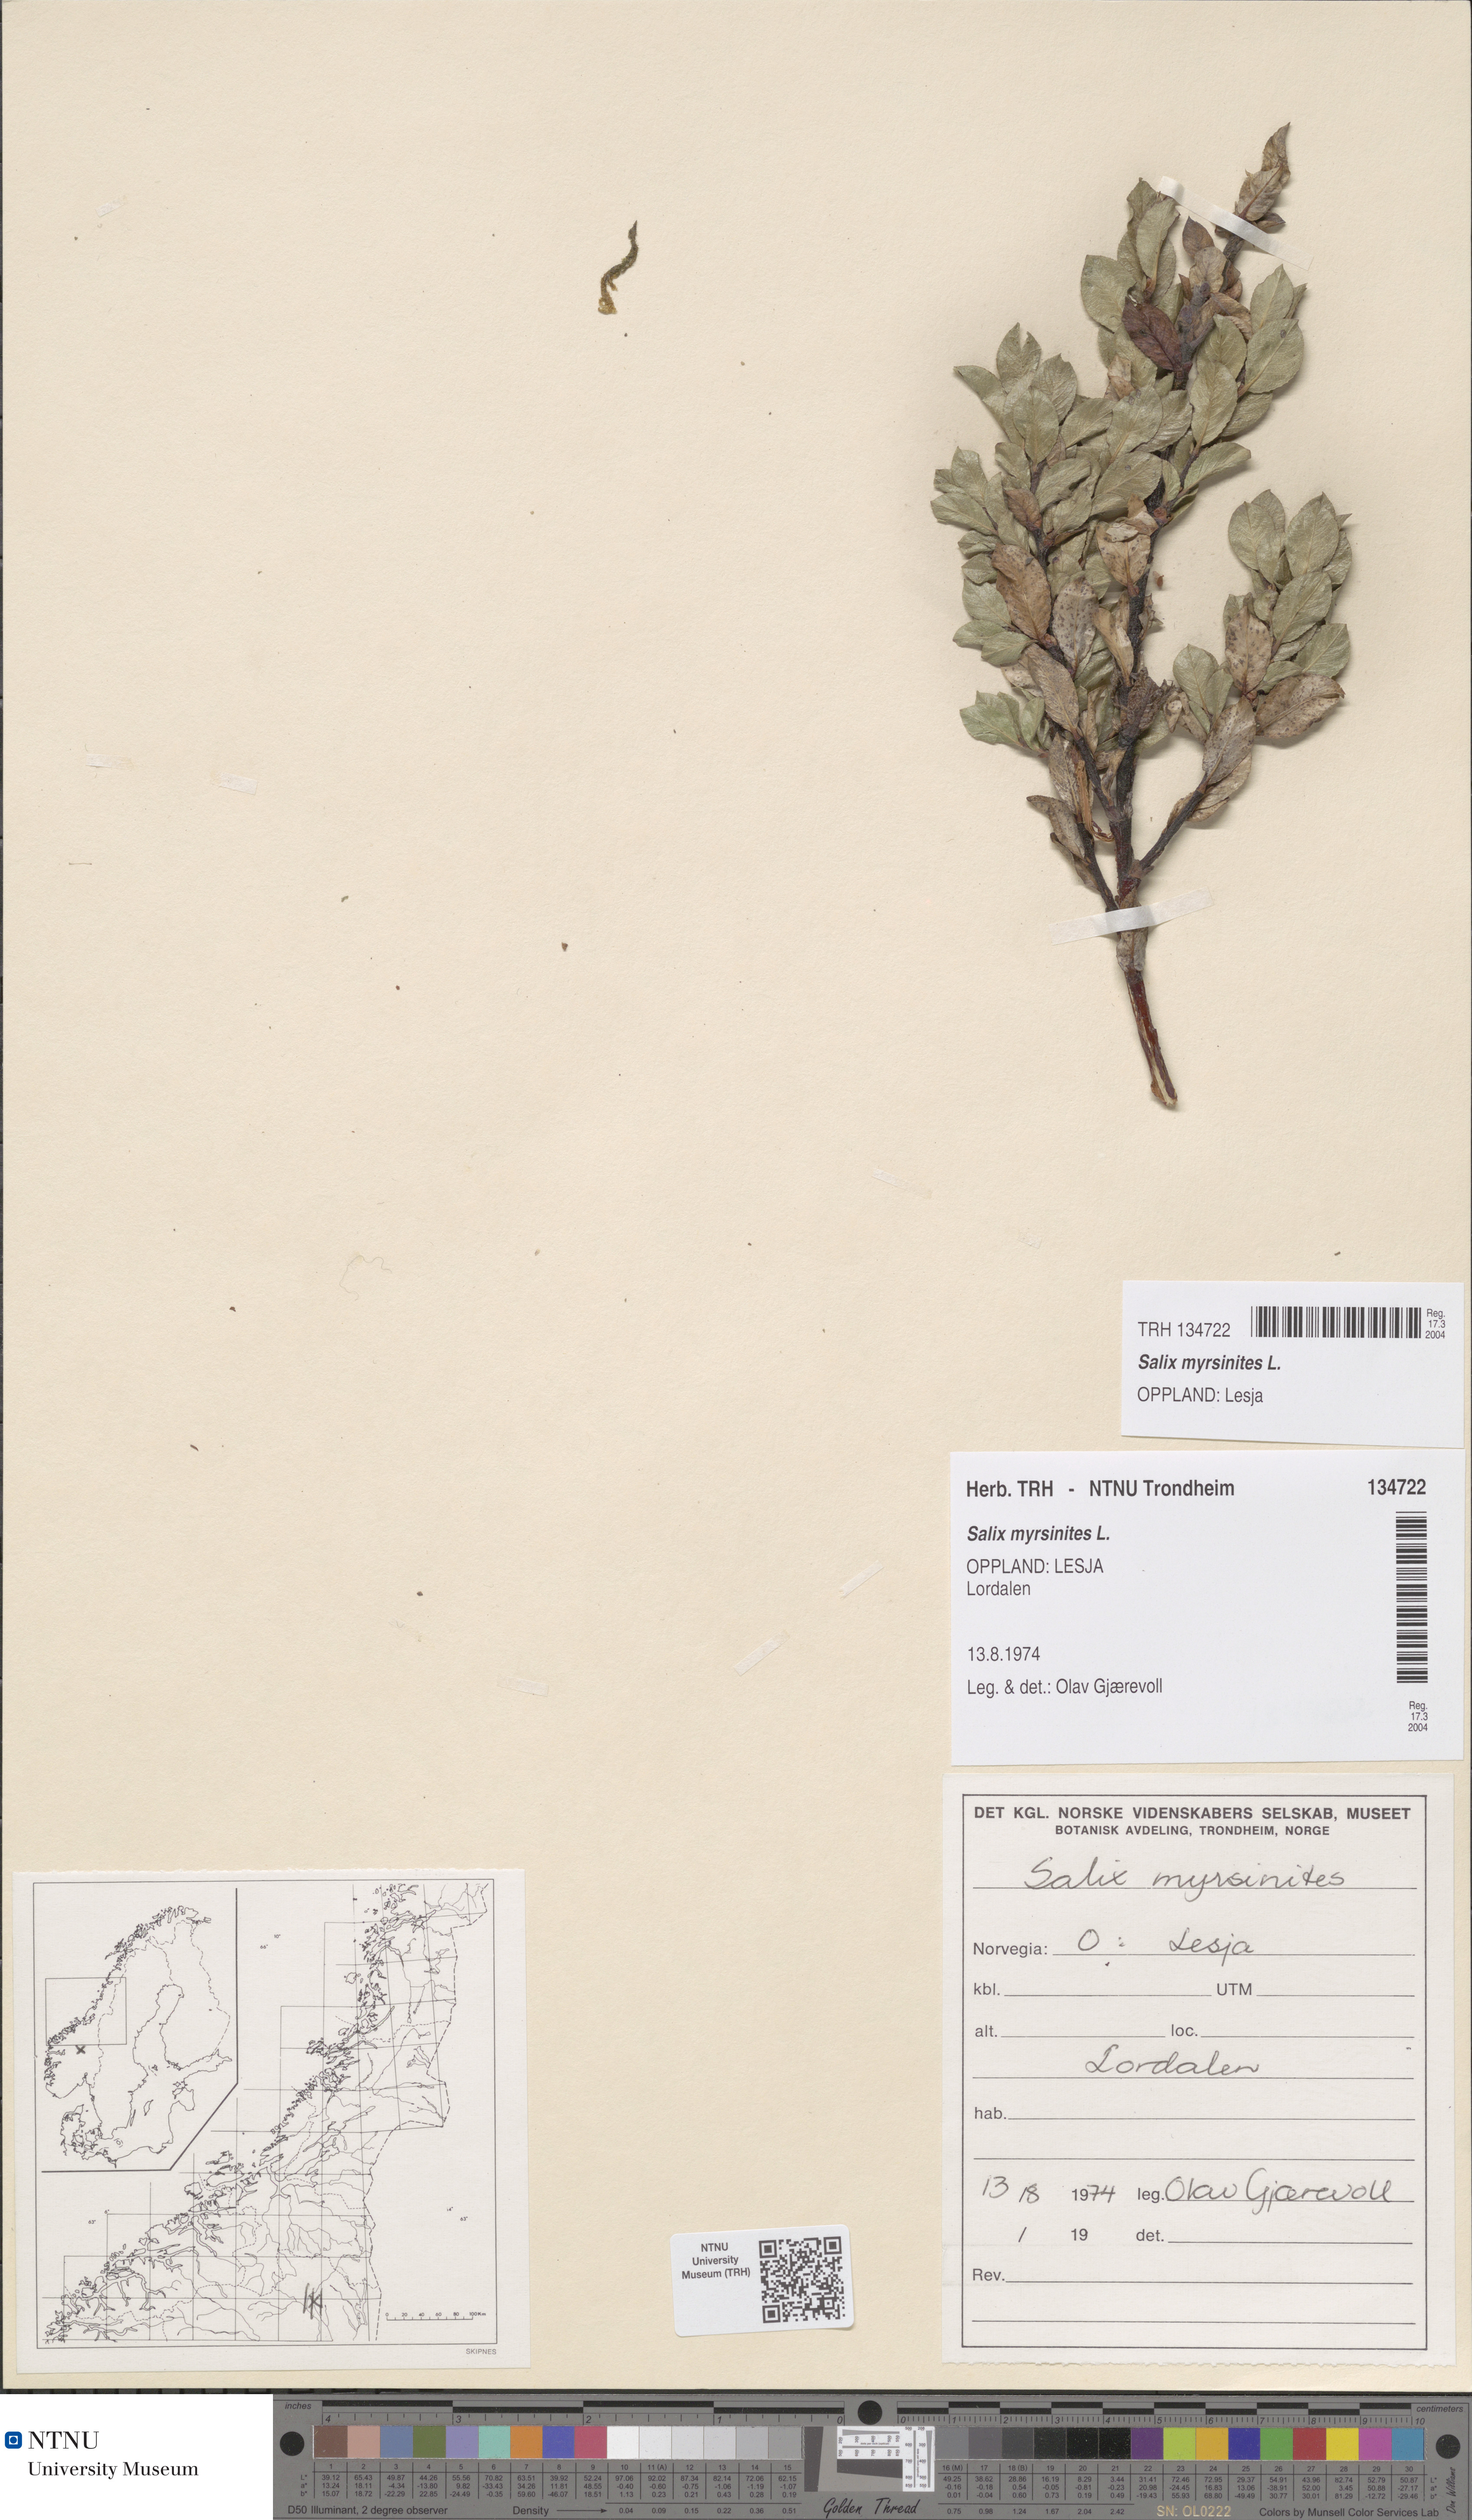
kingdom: Plantae
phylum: Tracheophyta
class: Magnoliopsida
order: Malpighiales
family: Salicaceae
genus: Salix
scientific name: Salix myrsinites
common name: Myrtle willow
